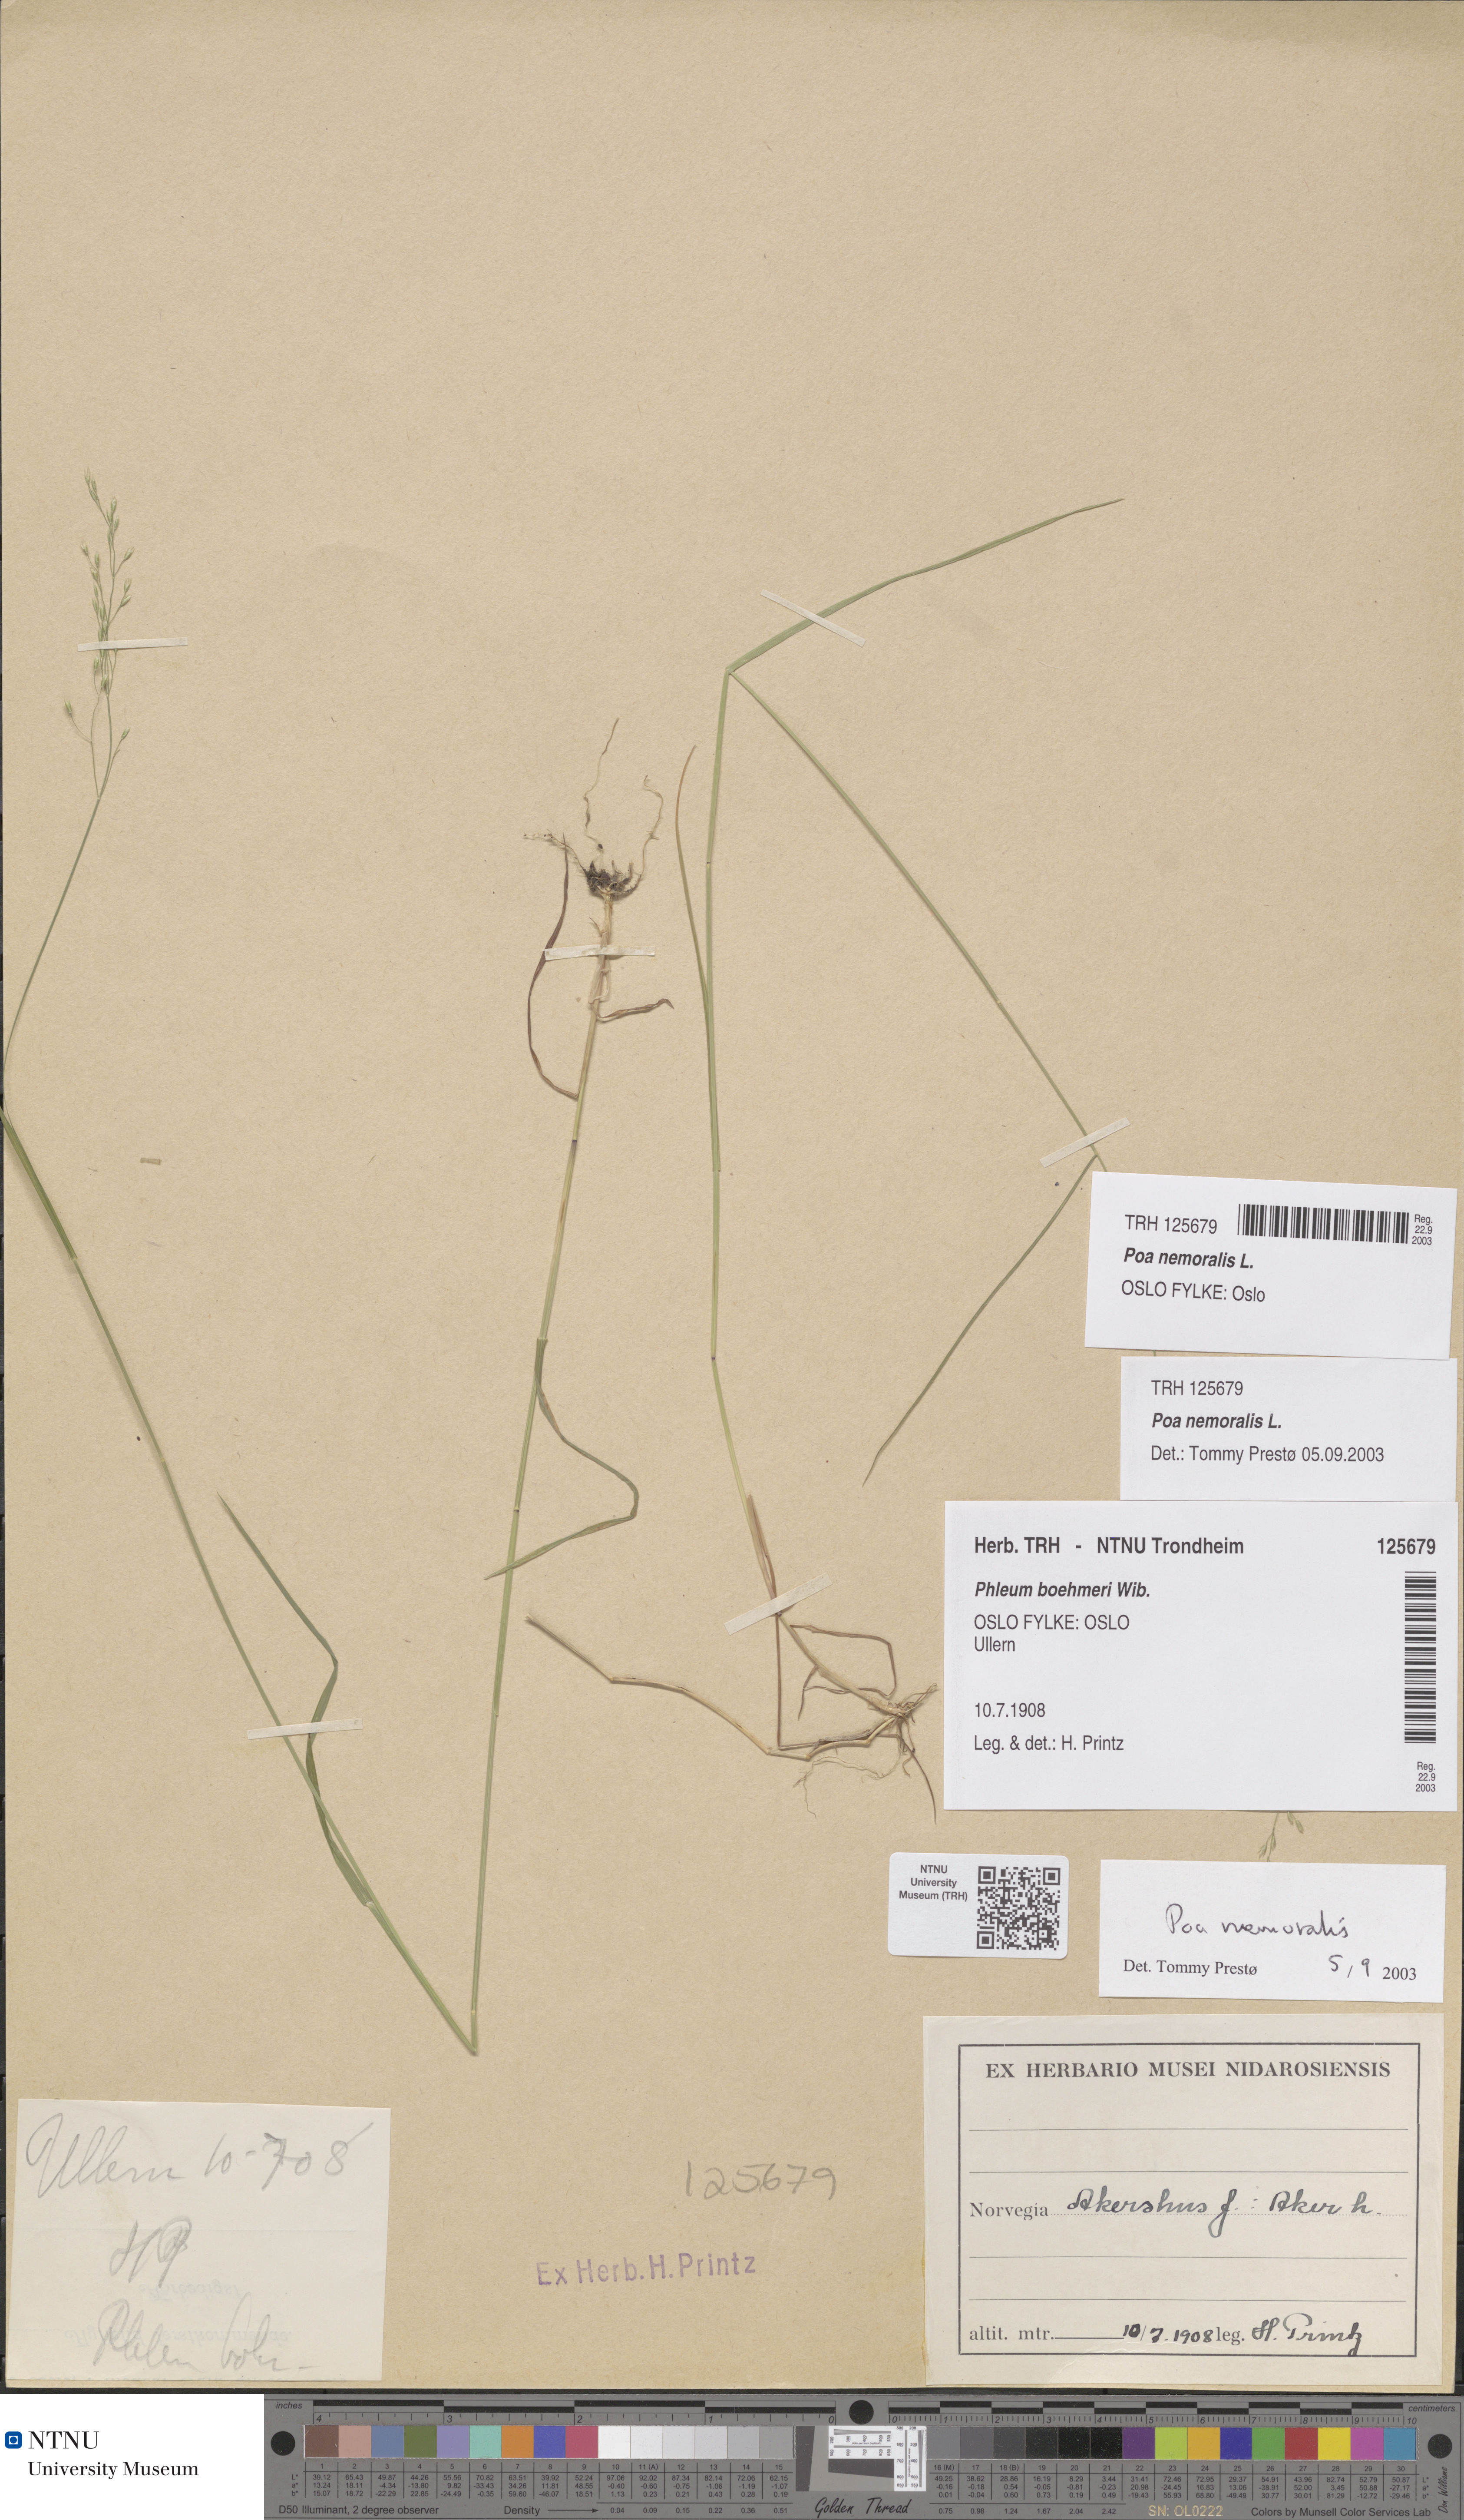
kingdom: Plantae
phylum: Tracheophyta
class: Liliopsida
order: Poales
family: Poaceae
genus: Poa
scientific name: Poa nemoralis
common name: Wood bluegrass
